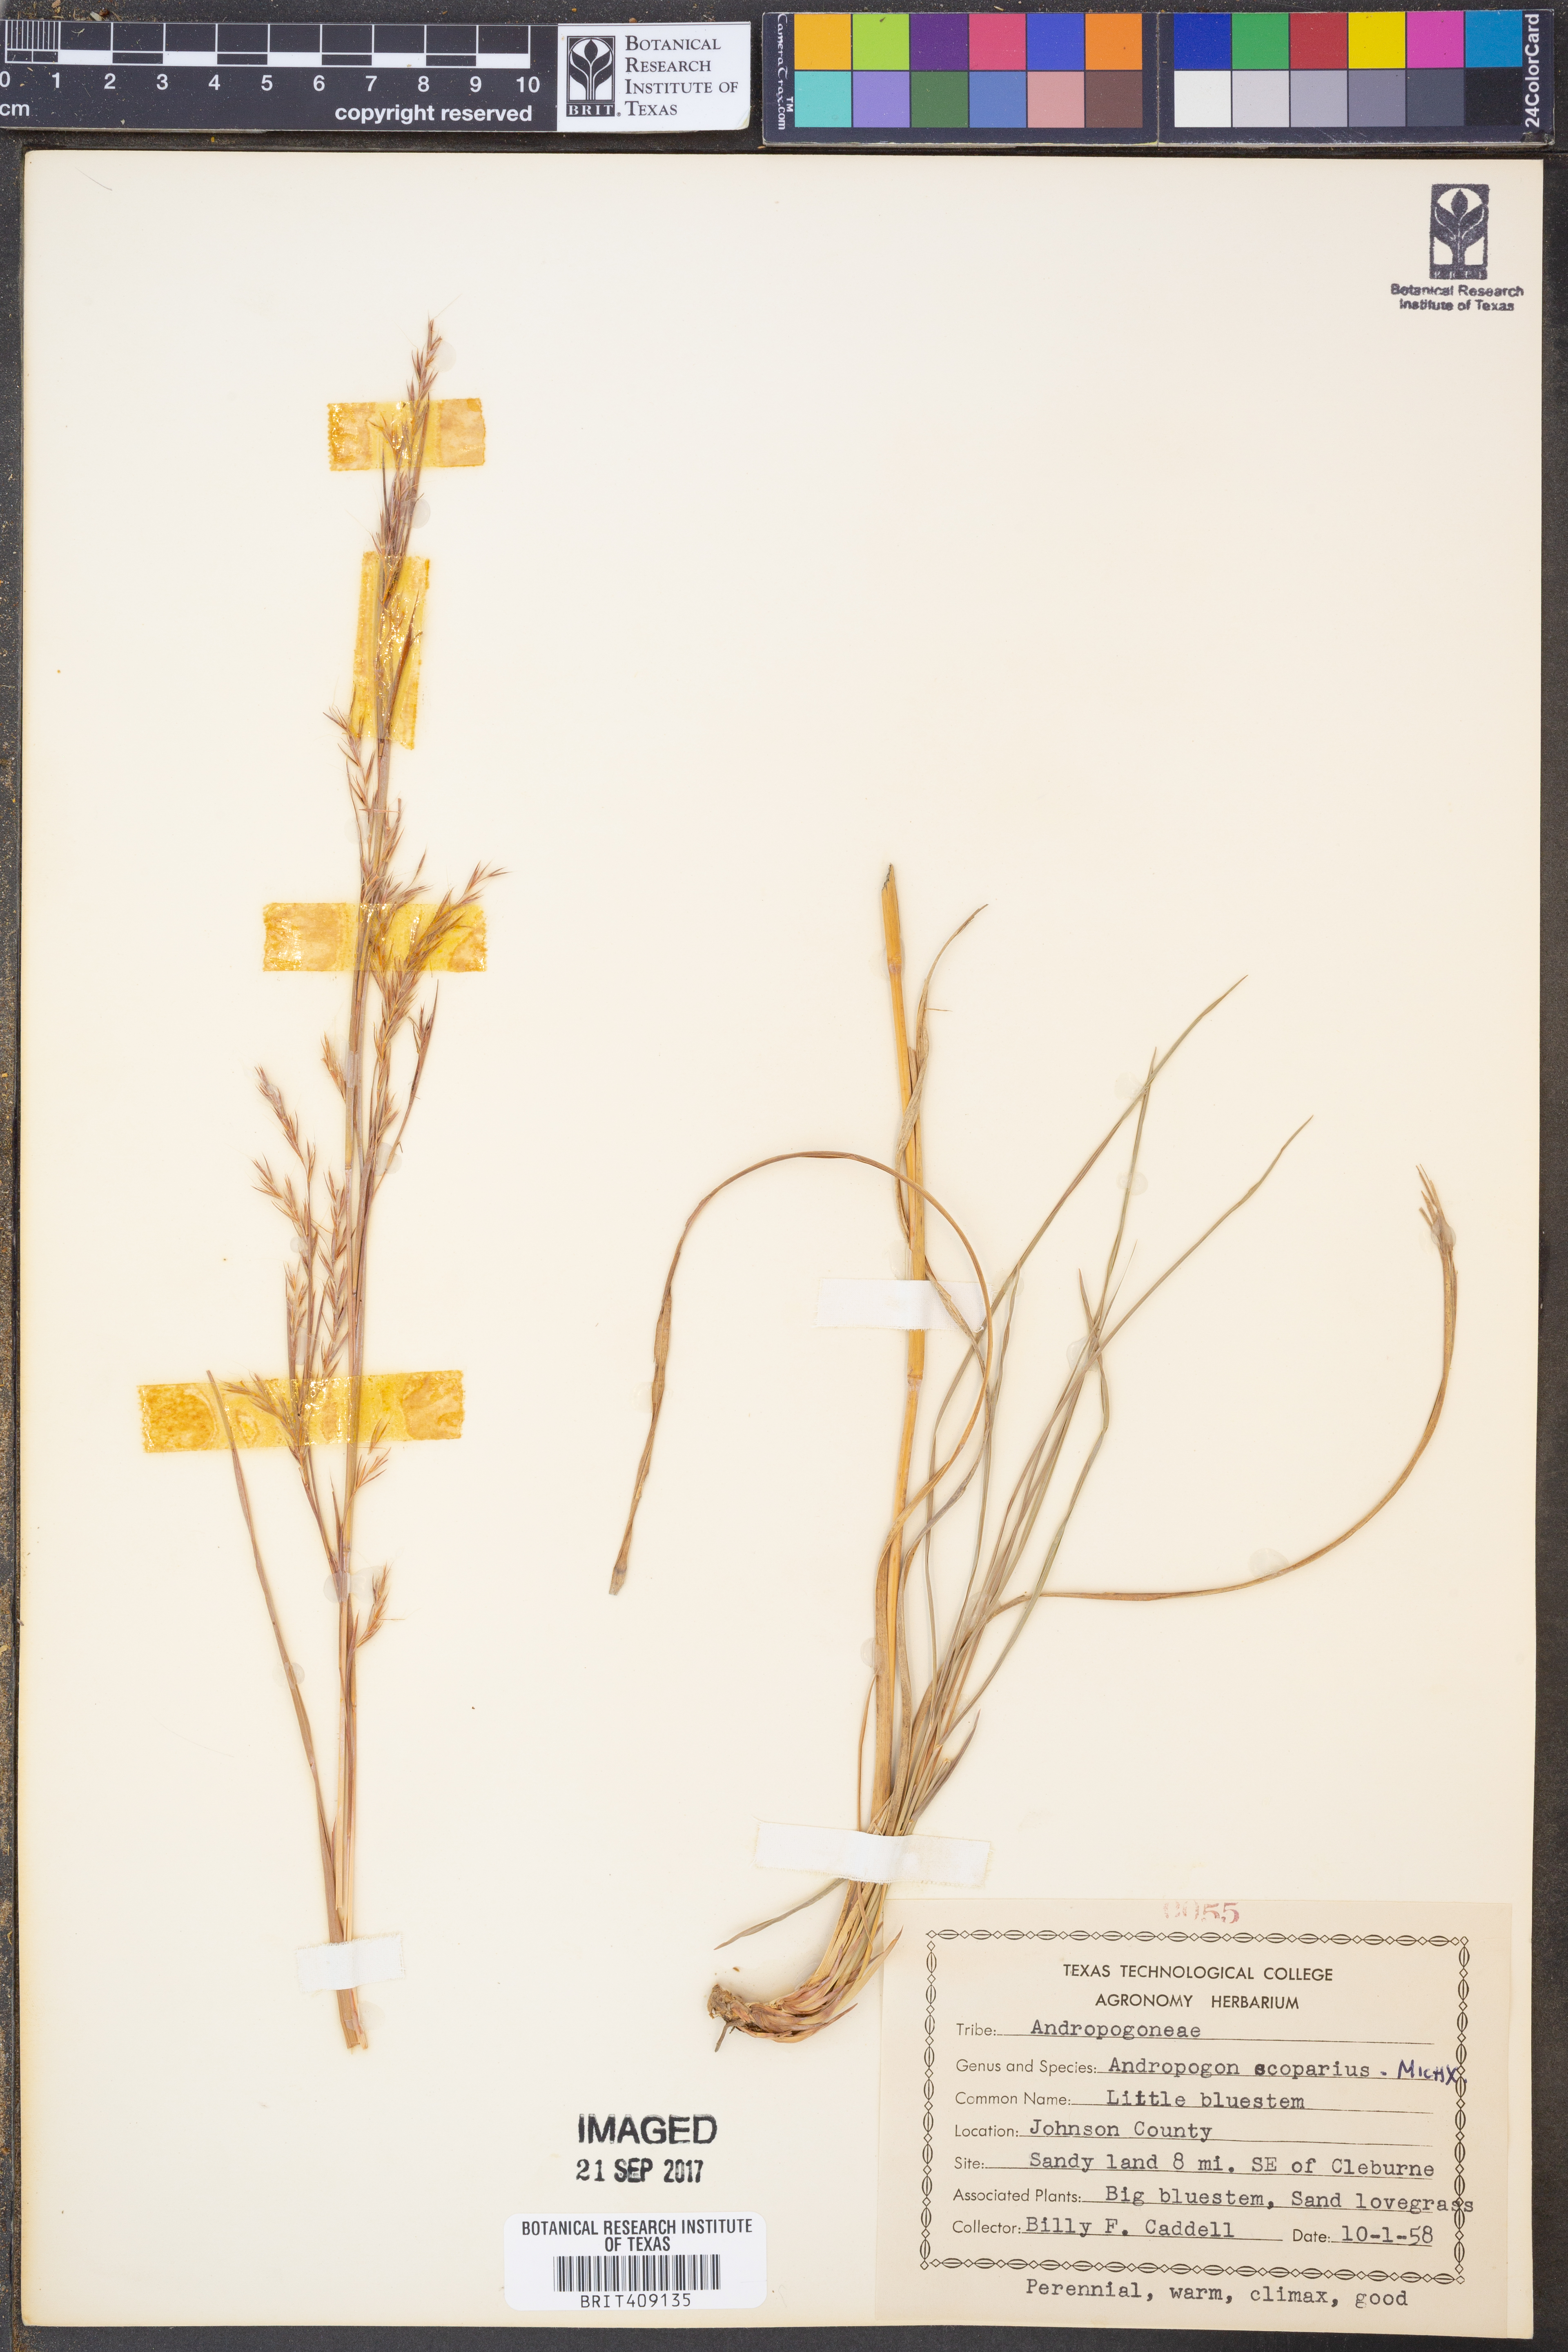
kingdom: Plantae
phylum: Tracheophyta
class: Liliopsida
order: Poales
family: Poaceae
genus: Schizachyrium
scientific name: Schizachyrium scoparium
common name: Little bluestem
